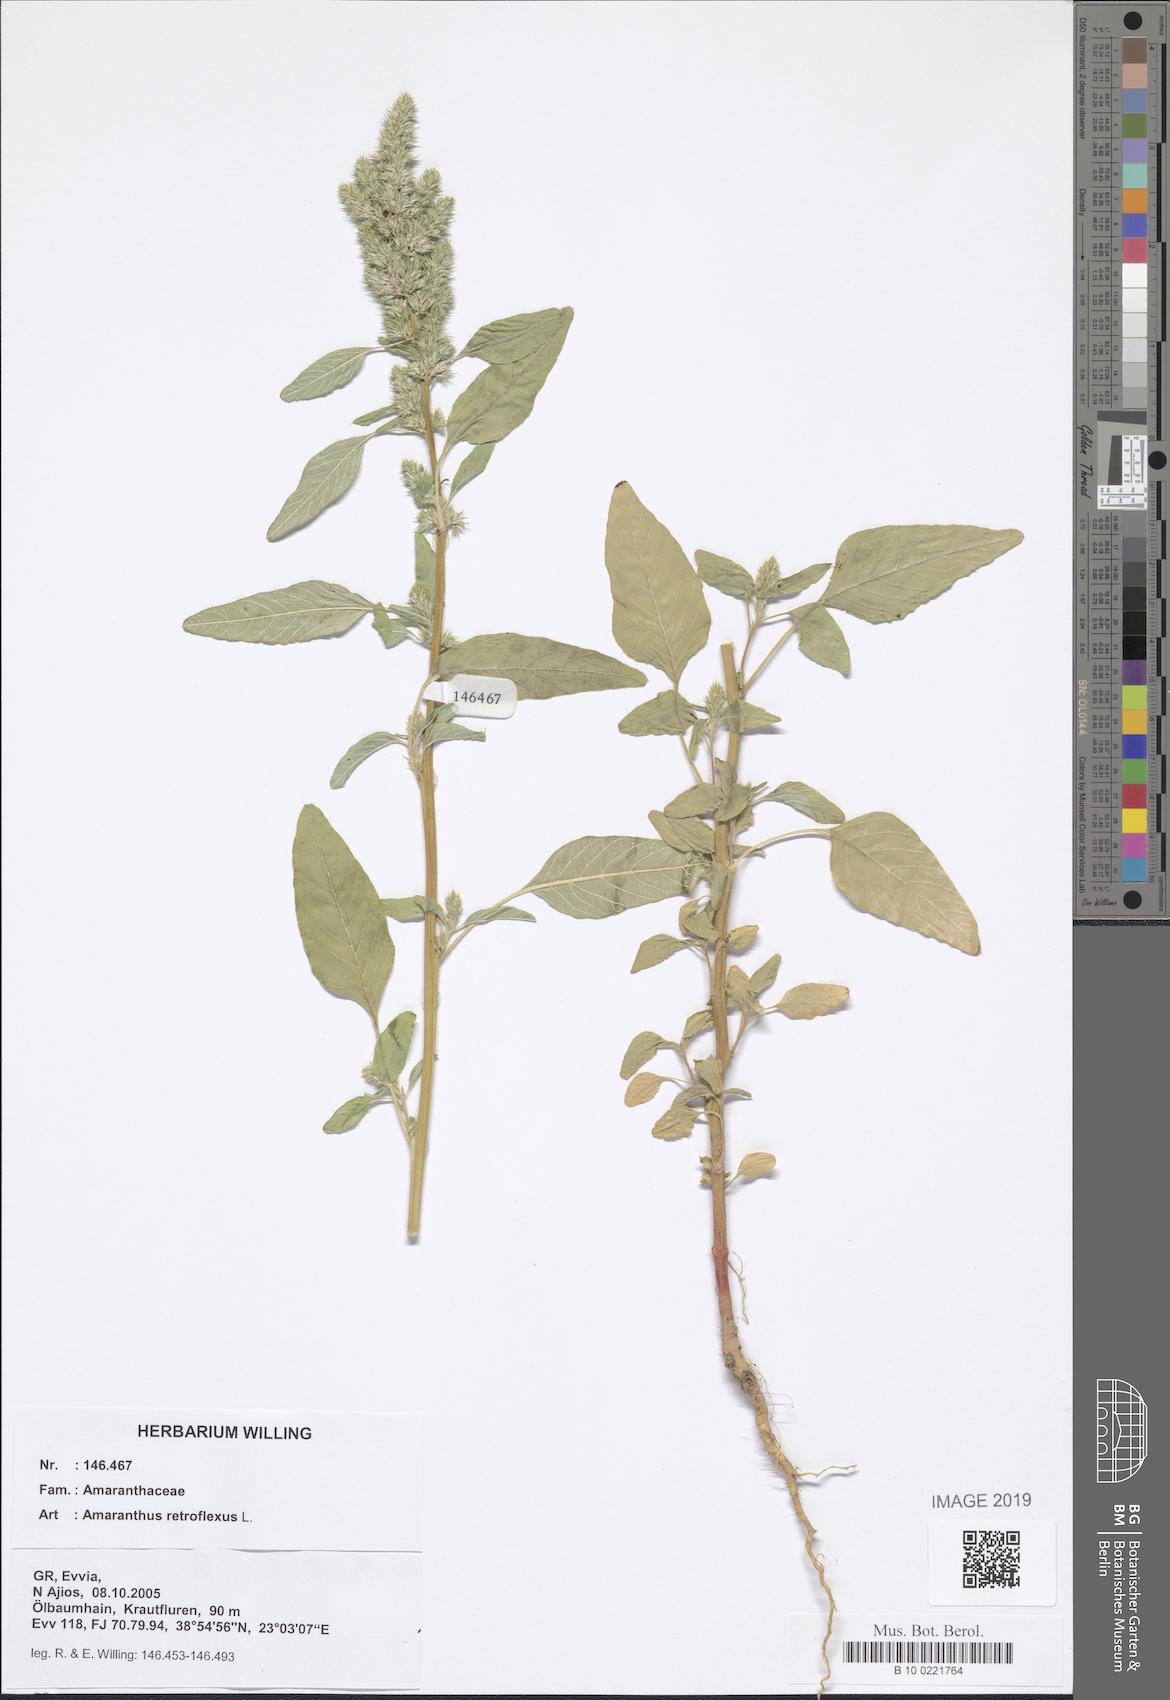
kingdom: Plantae
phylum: Tracheophyta
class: Magnoliopsida
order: Caryophyllales
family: Amaranthaceae
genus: Amaranthus
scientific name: Amaranthus retroflexus
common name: Redroot amaranth
